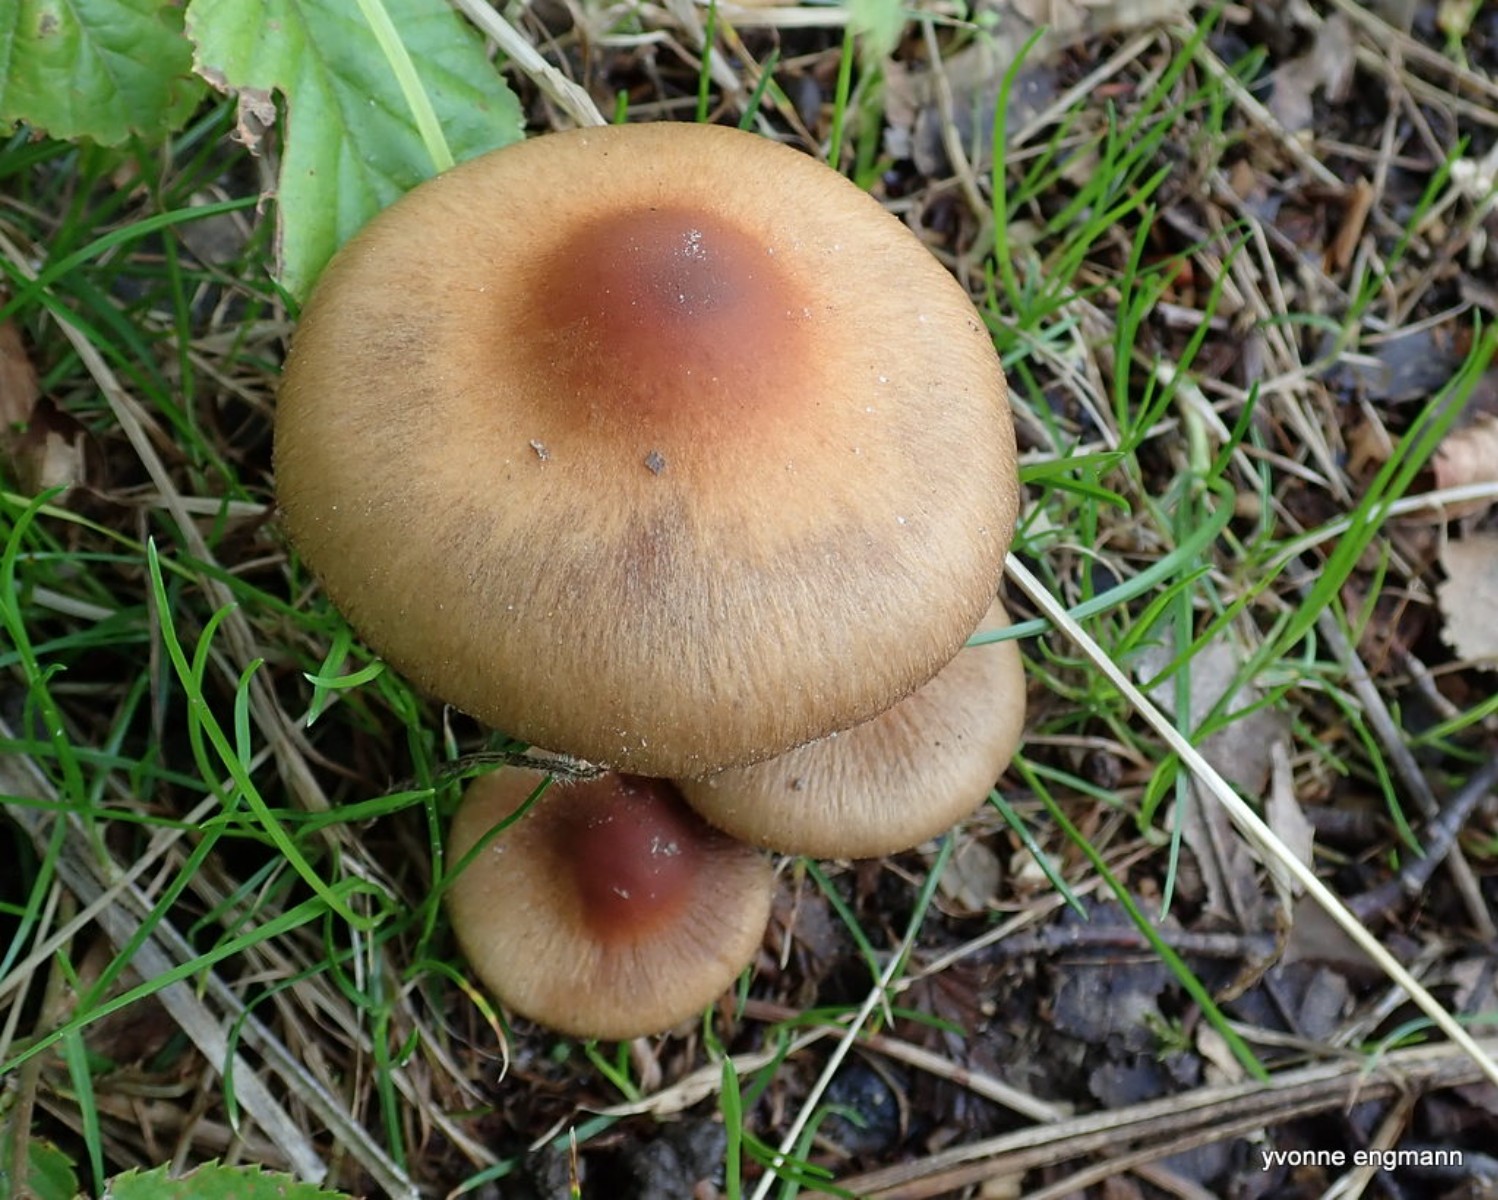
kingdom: Fungi
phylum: Basidiomycota
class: Agaricomycetes
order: Agaricales
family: Psathyrellaceae
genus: Lacrymaria
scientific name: Lacrymaria lacrymabunda
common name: grædende mørkhat
